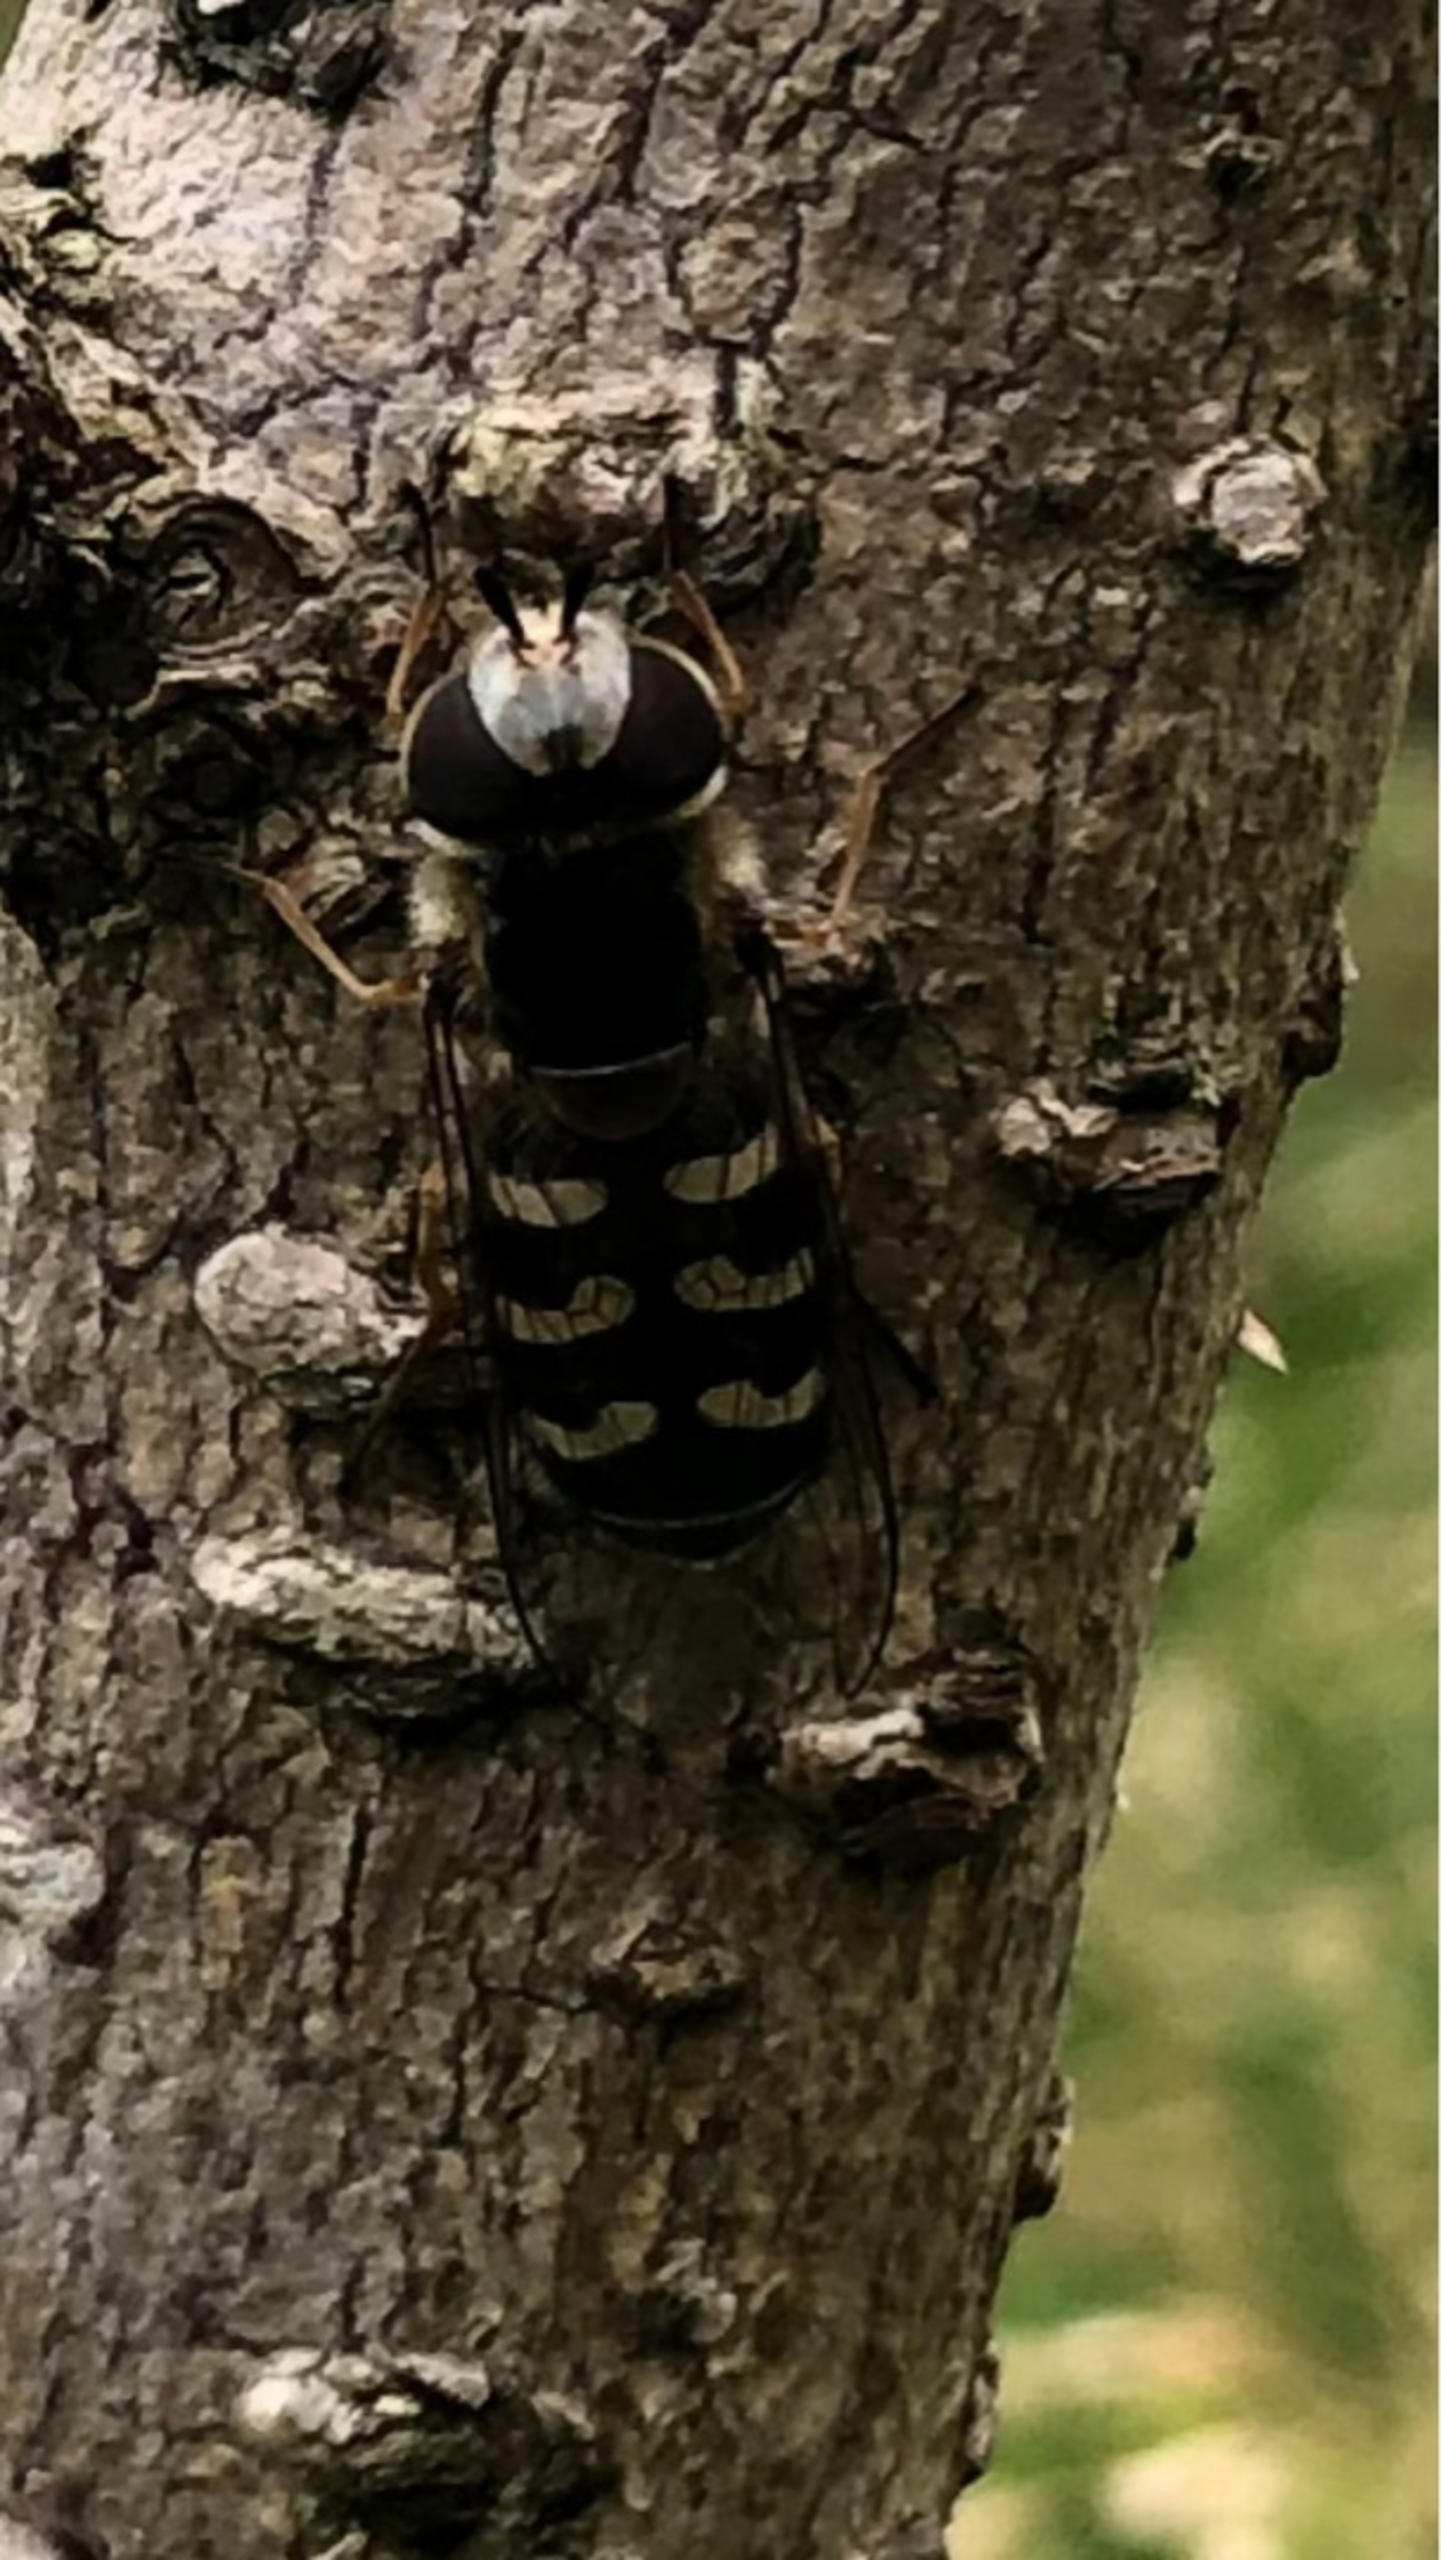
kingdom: Animalia
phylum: Arthropoda
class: Insecta
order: Diptera
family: Syrphidae
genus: Scaeva
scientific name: Scaeva pyrastri
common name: Hvidplettet agersvirreflue
